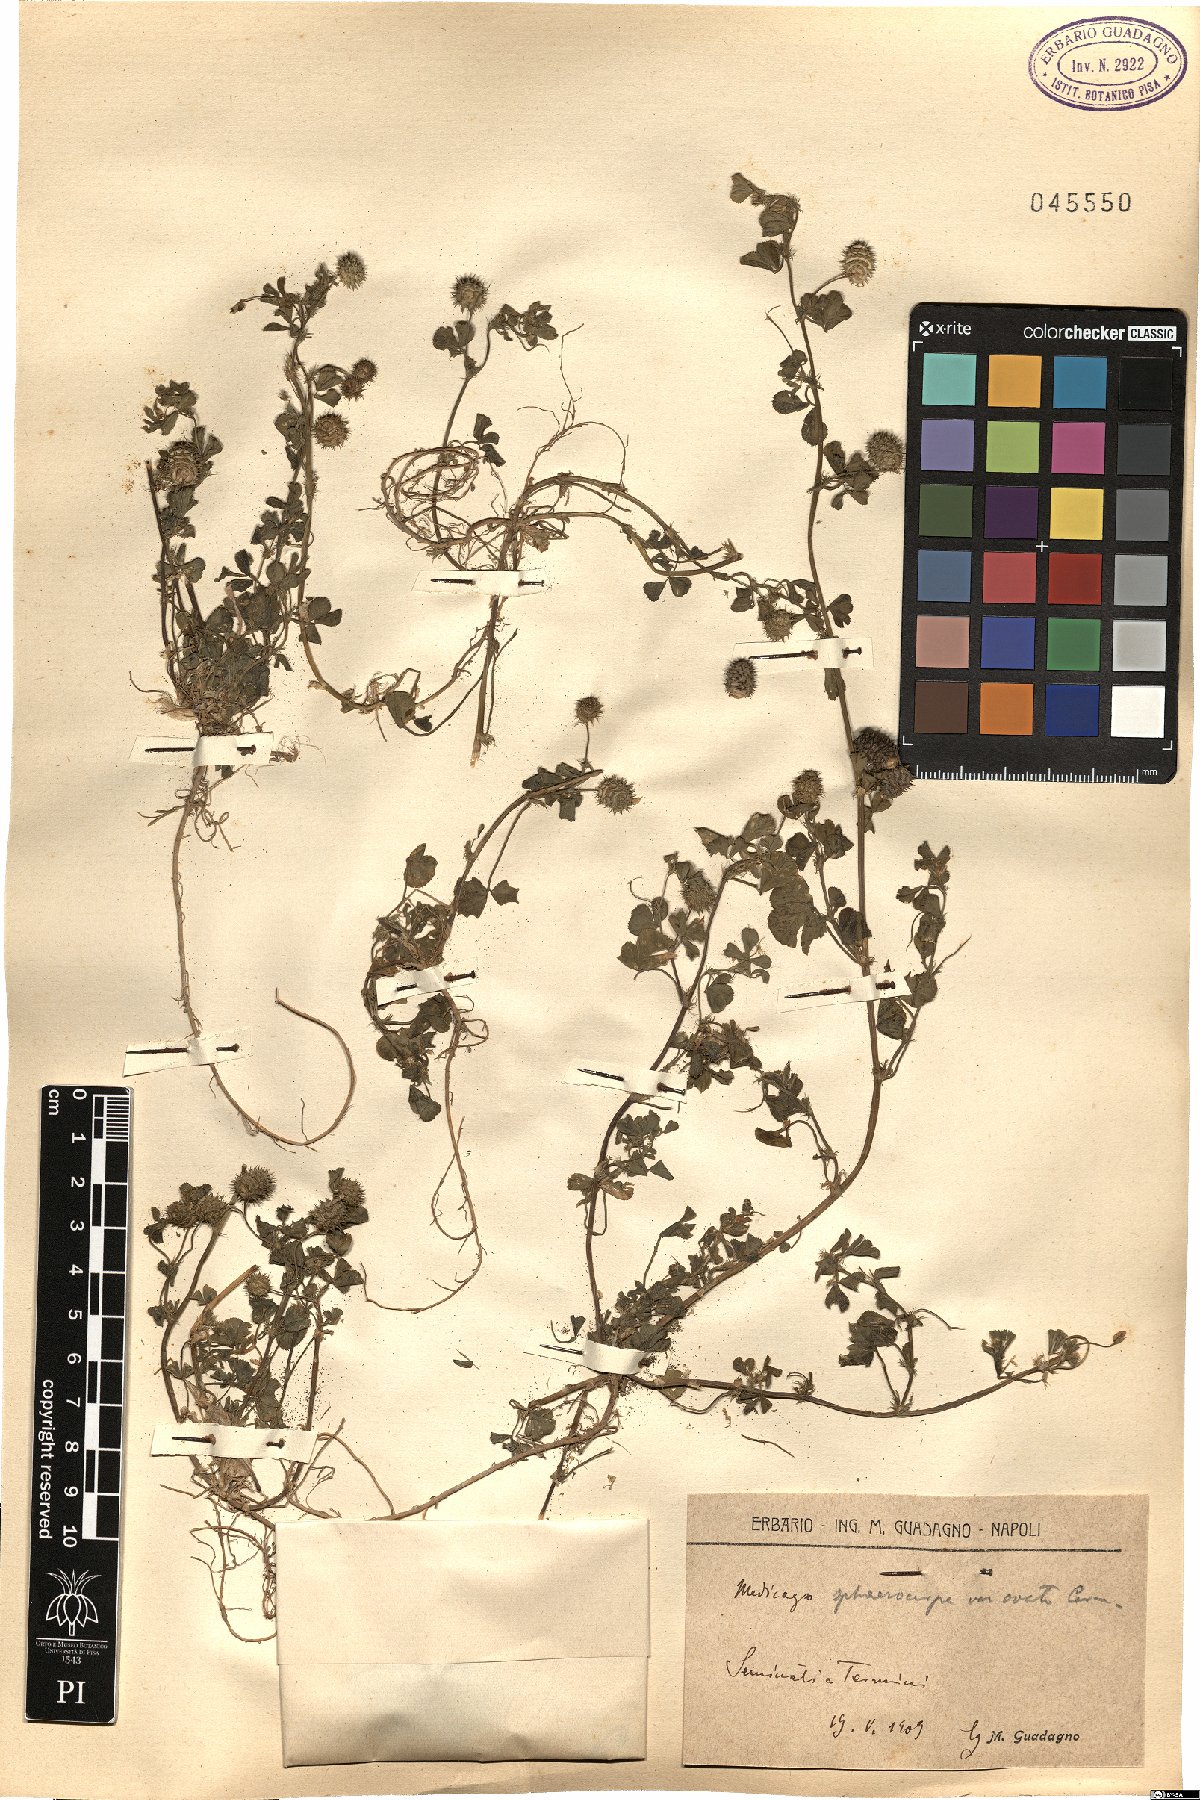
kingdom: Plantae
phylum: Tracheophyta
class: Magnoliopsida
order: Fabales
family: Fabaceae
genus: Medicago
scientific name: Medicago sphaerocarpos
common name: Sphere medic
